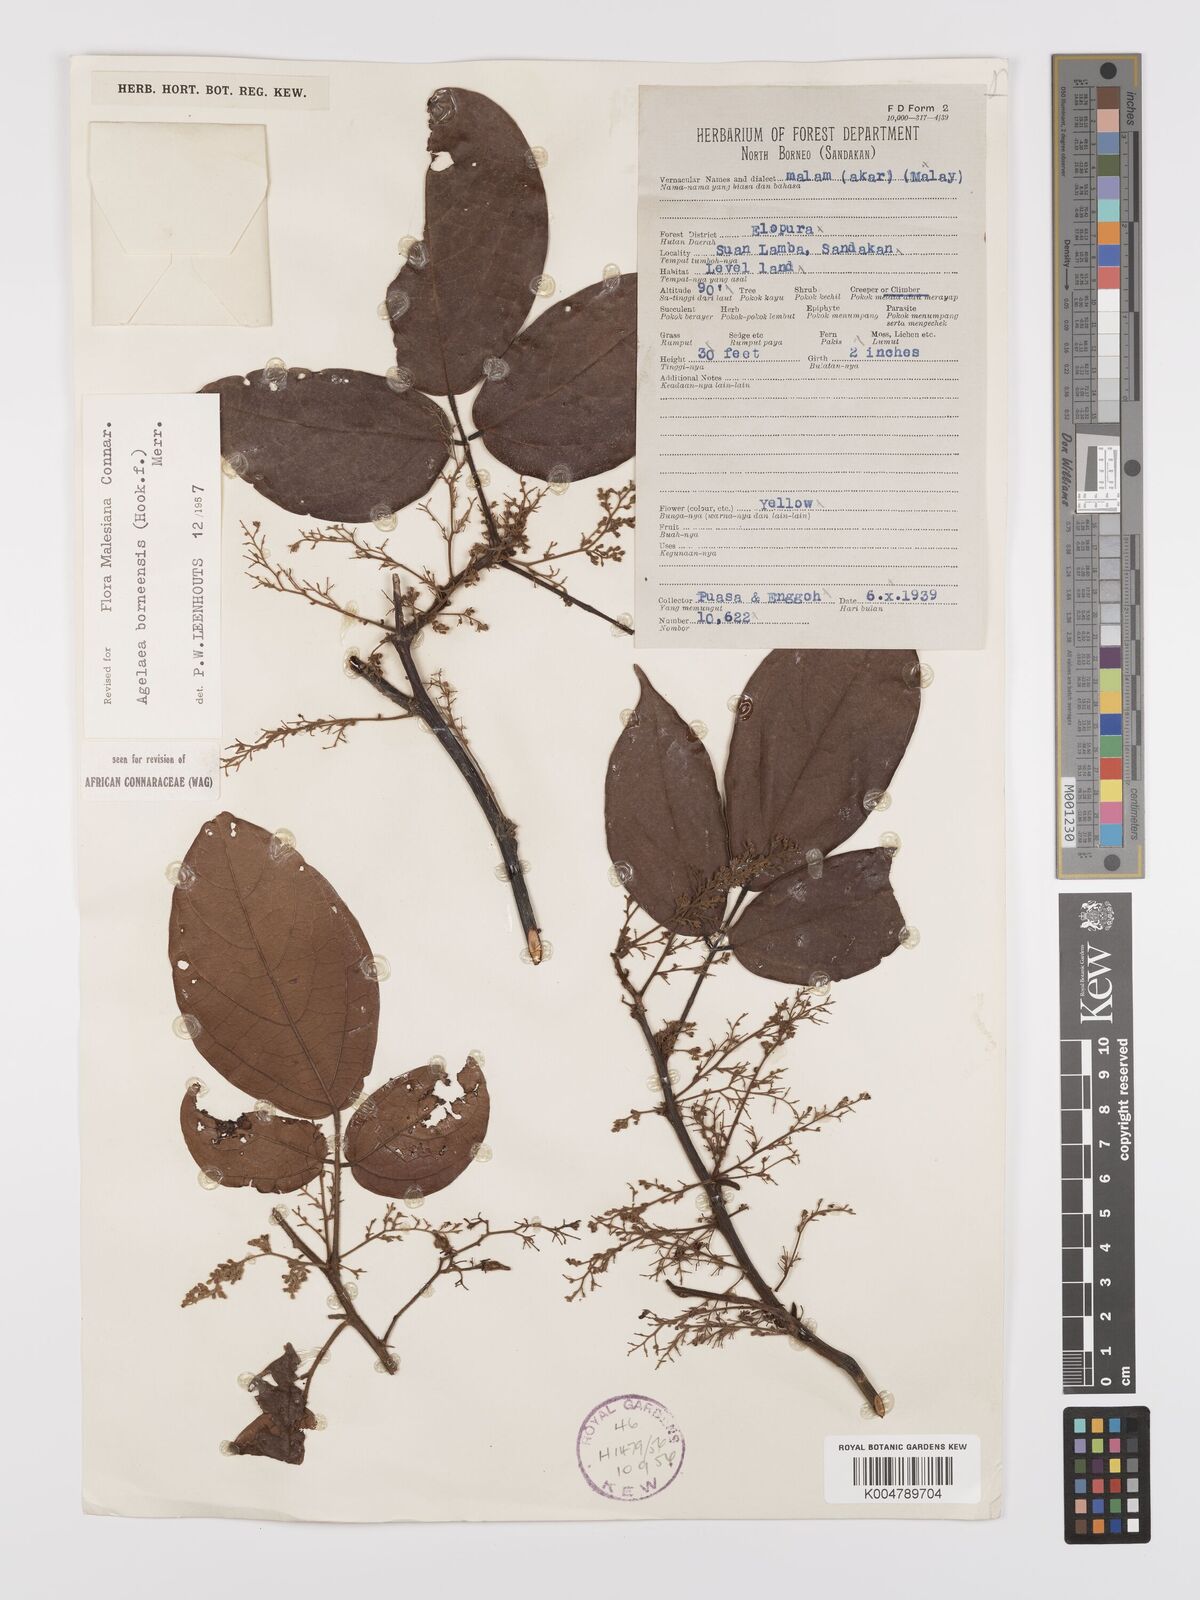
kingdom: Plantae
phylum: Tracheophyta
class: Magnoliopsida
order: Oxalidales
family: Connaraceae
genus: Agelaea
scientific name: Agelaea borneensis
